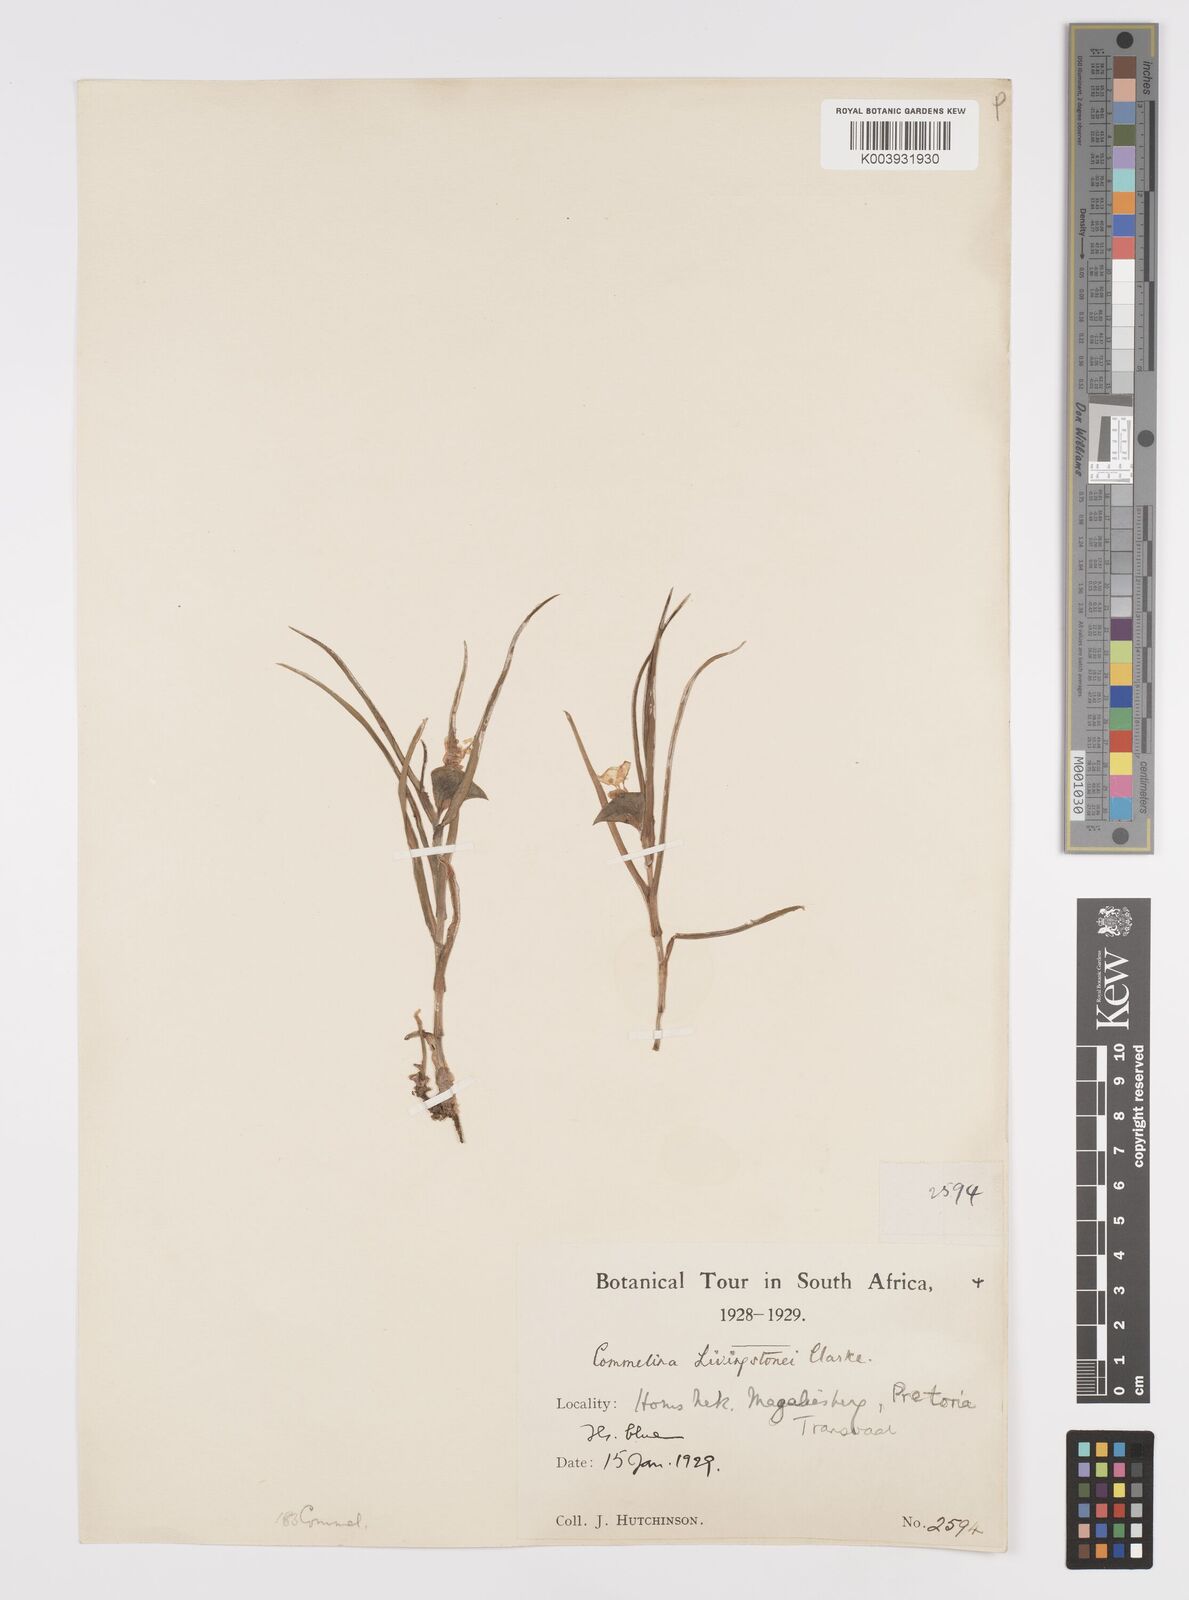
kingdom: Plantae
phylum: Tracheophyta
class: Liliopsida
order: Commelinales
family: Commelinaceae
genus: Commelina
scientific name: Commelina erecta
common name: Blousel blommetjie
